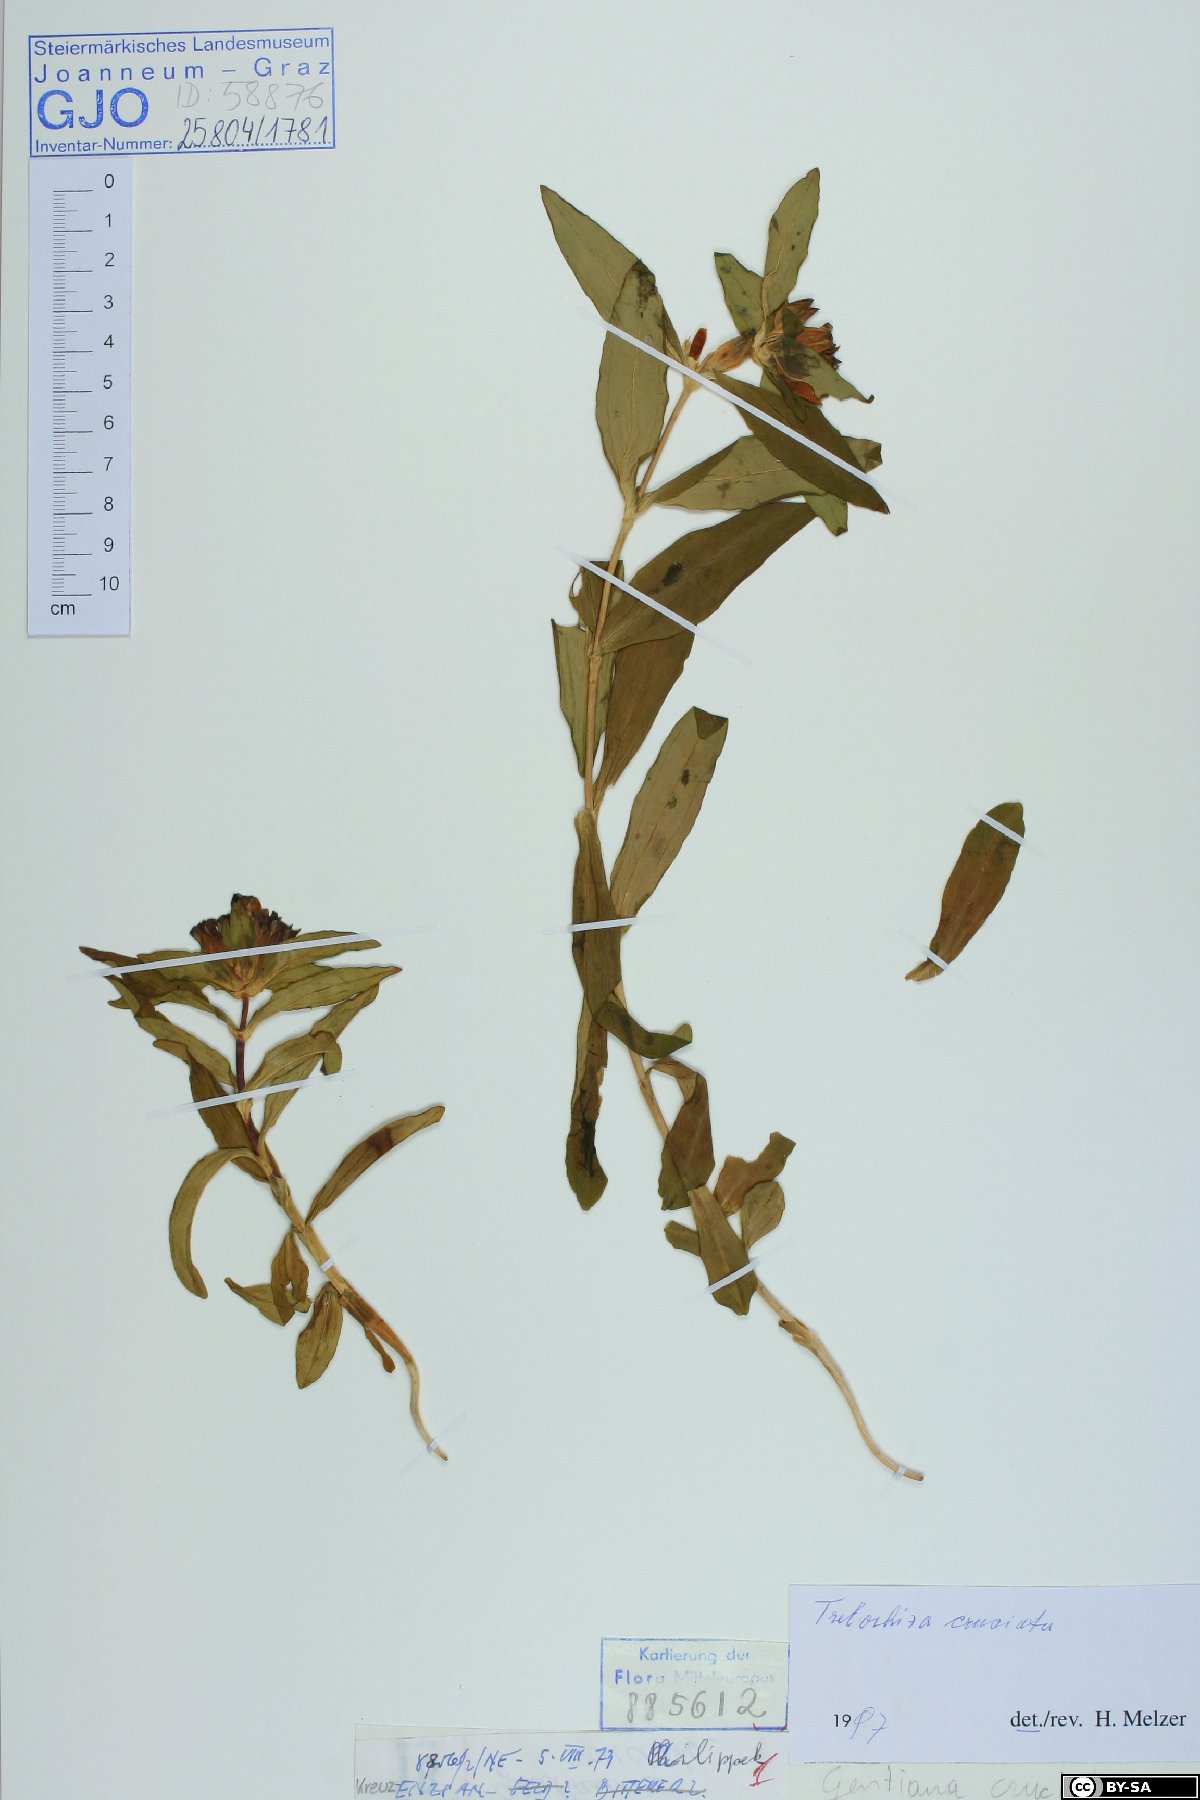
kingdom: Plantae
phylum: Tracheophyta
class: Magnoliopsida
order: Gentianales
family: Gentianaceae
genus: Gentiana
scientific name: Gentiana cruciata
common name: Cross gentian
